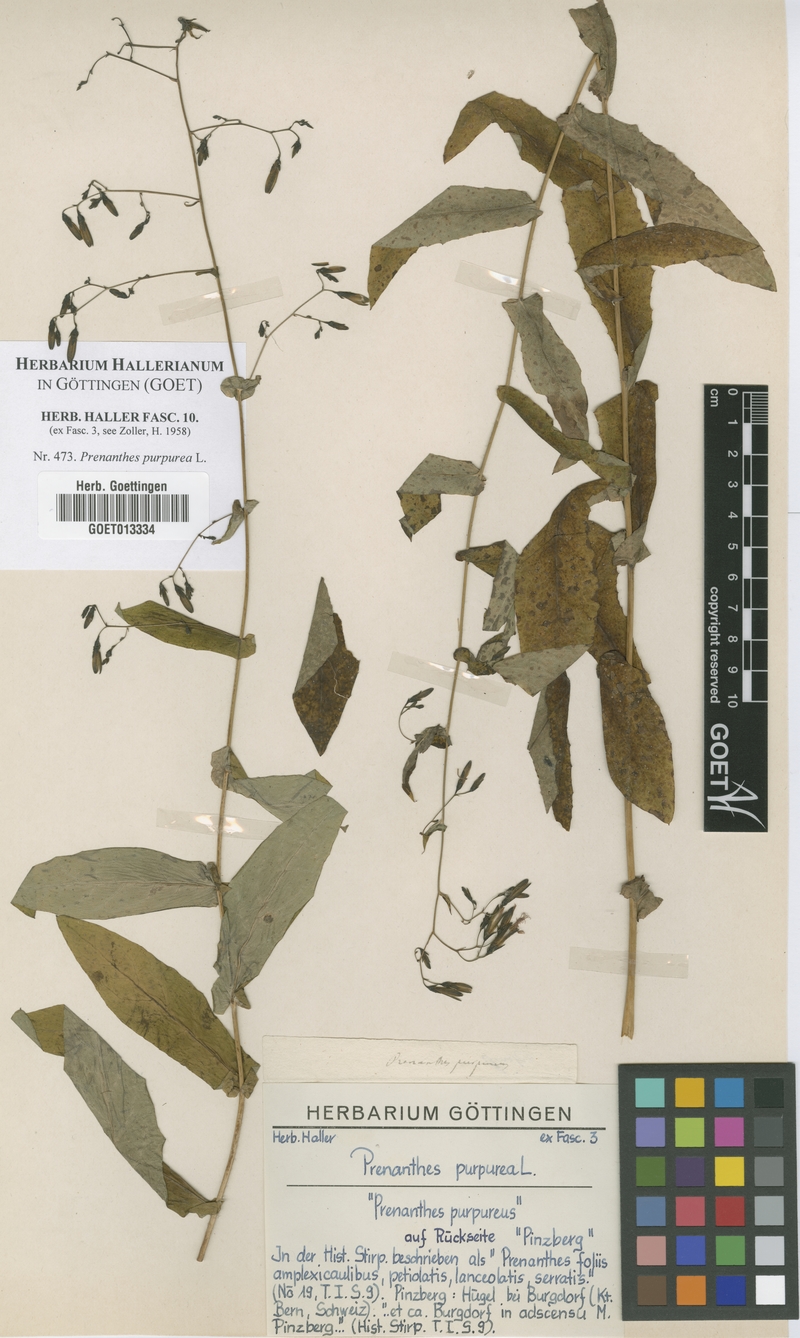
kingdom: Plantae
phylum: Tracheophyta
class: Magnoliopsida
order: Asterales
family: Asteraceae
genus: Prenanthes
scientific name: Prenanthes purpurea
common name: Purple lettuce
